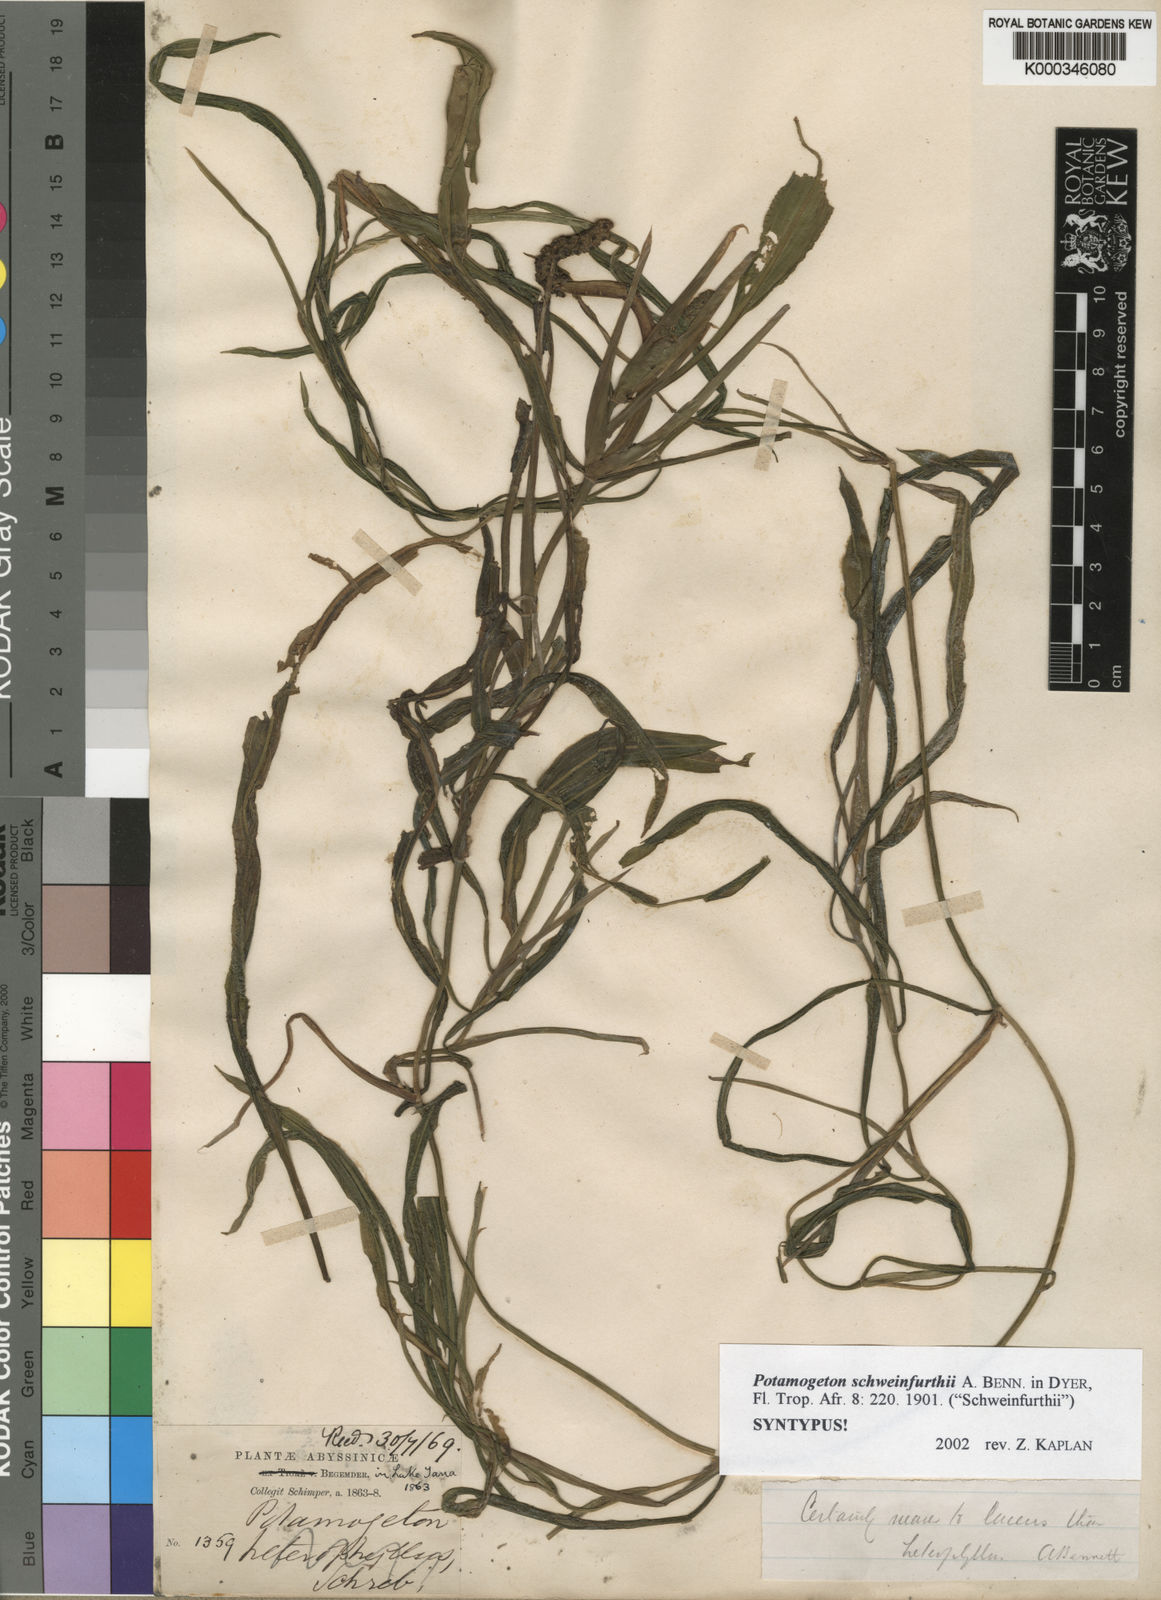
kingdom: Plantae
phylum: Tracheophyta
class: Liliopsida
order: Alismatales
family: Potamogetonaceae
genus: Potamogeton
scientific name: Potamogeton schweinfurthii
